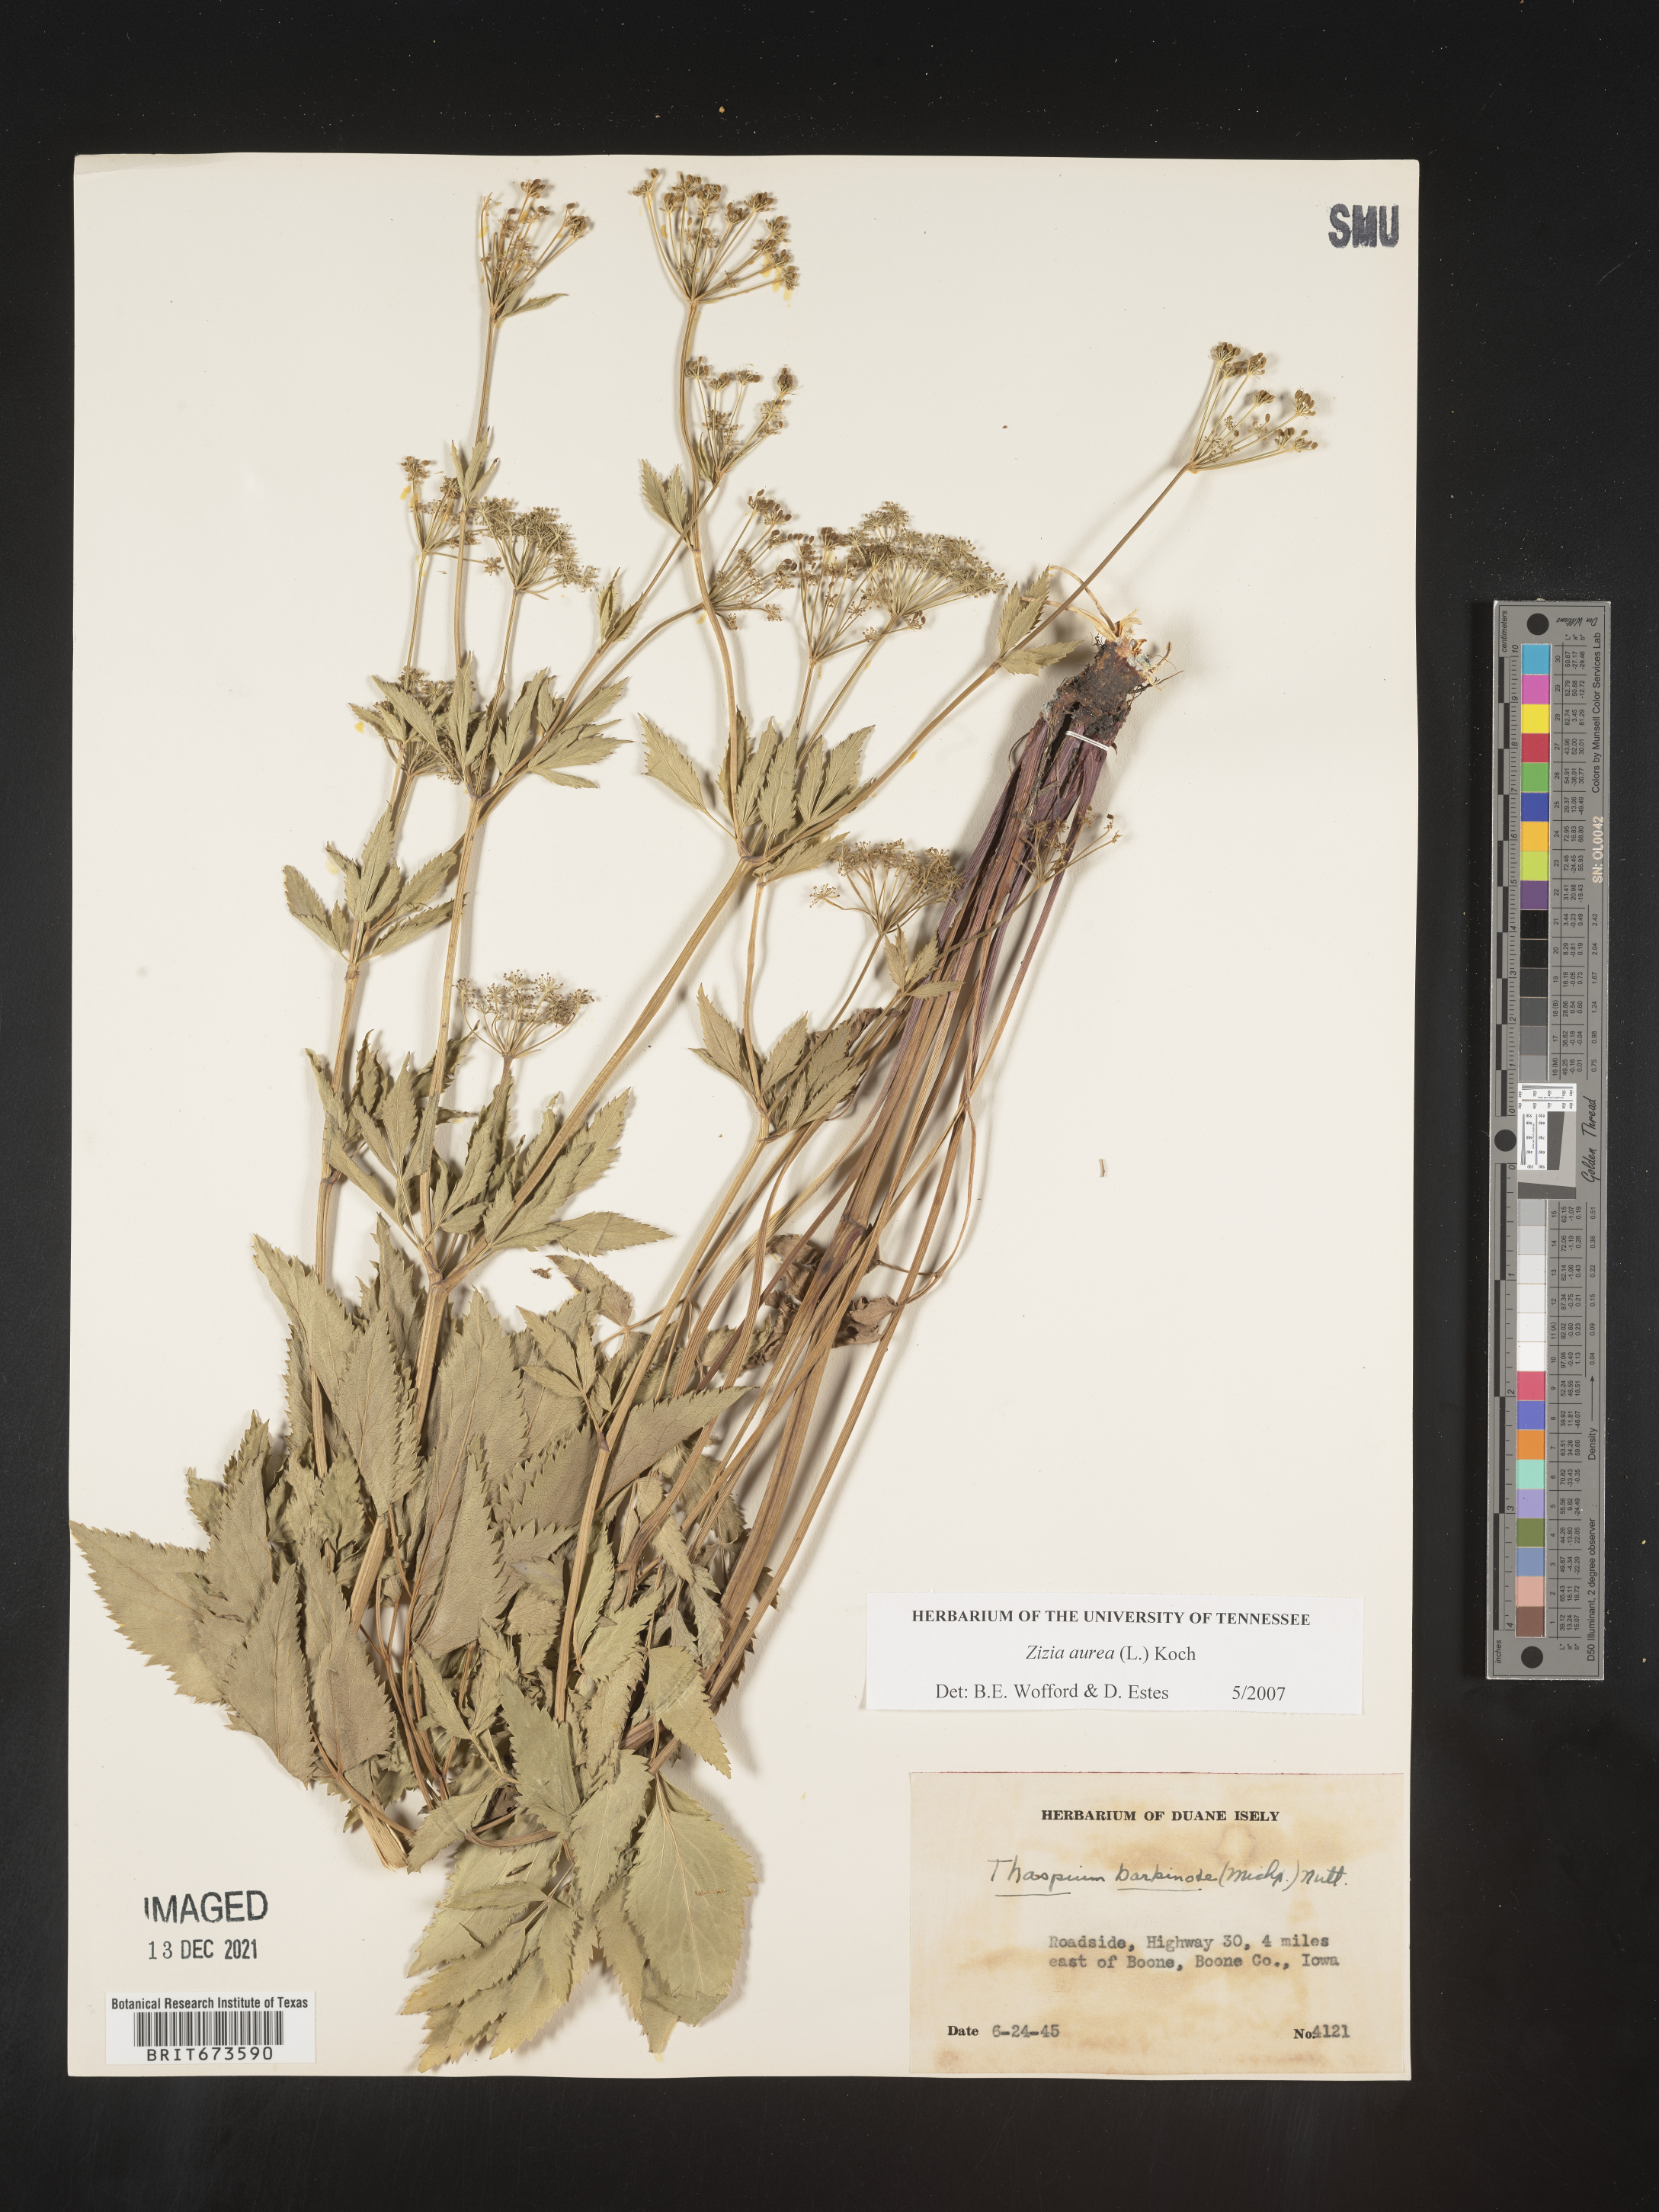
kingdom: Plantae
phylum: Tracheophyta
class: Magnoliopsida
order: Apiales
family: Apiaceae
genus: Zizia
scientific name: Zizia aurea
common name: Golden alexanders
